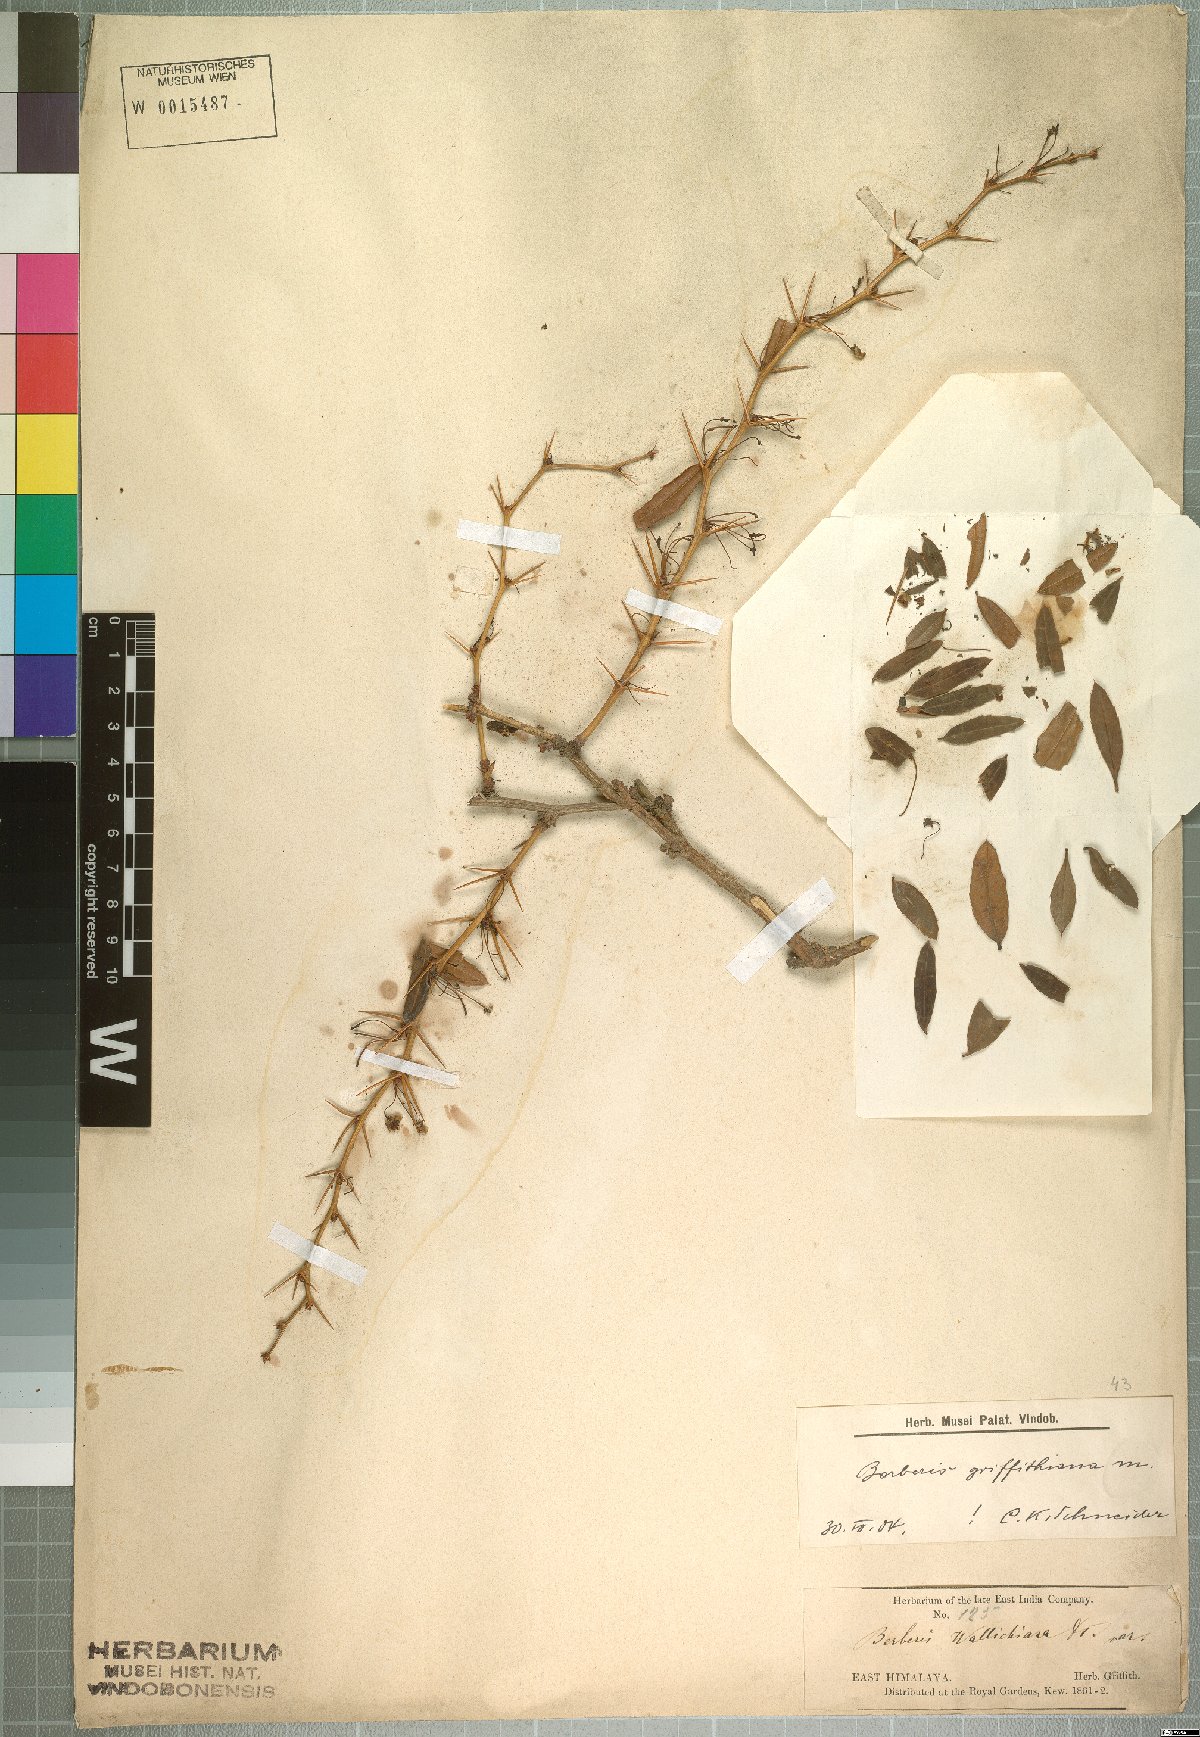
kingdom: Plantae
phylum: Tracheophyta
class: Magnoliopsida
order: Ranunculales
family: Berberidaceae
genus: Berberis
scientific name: Berberis griffithiana
